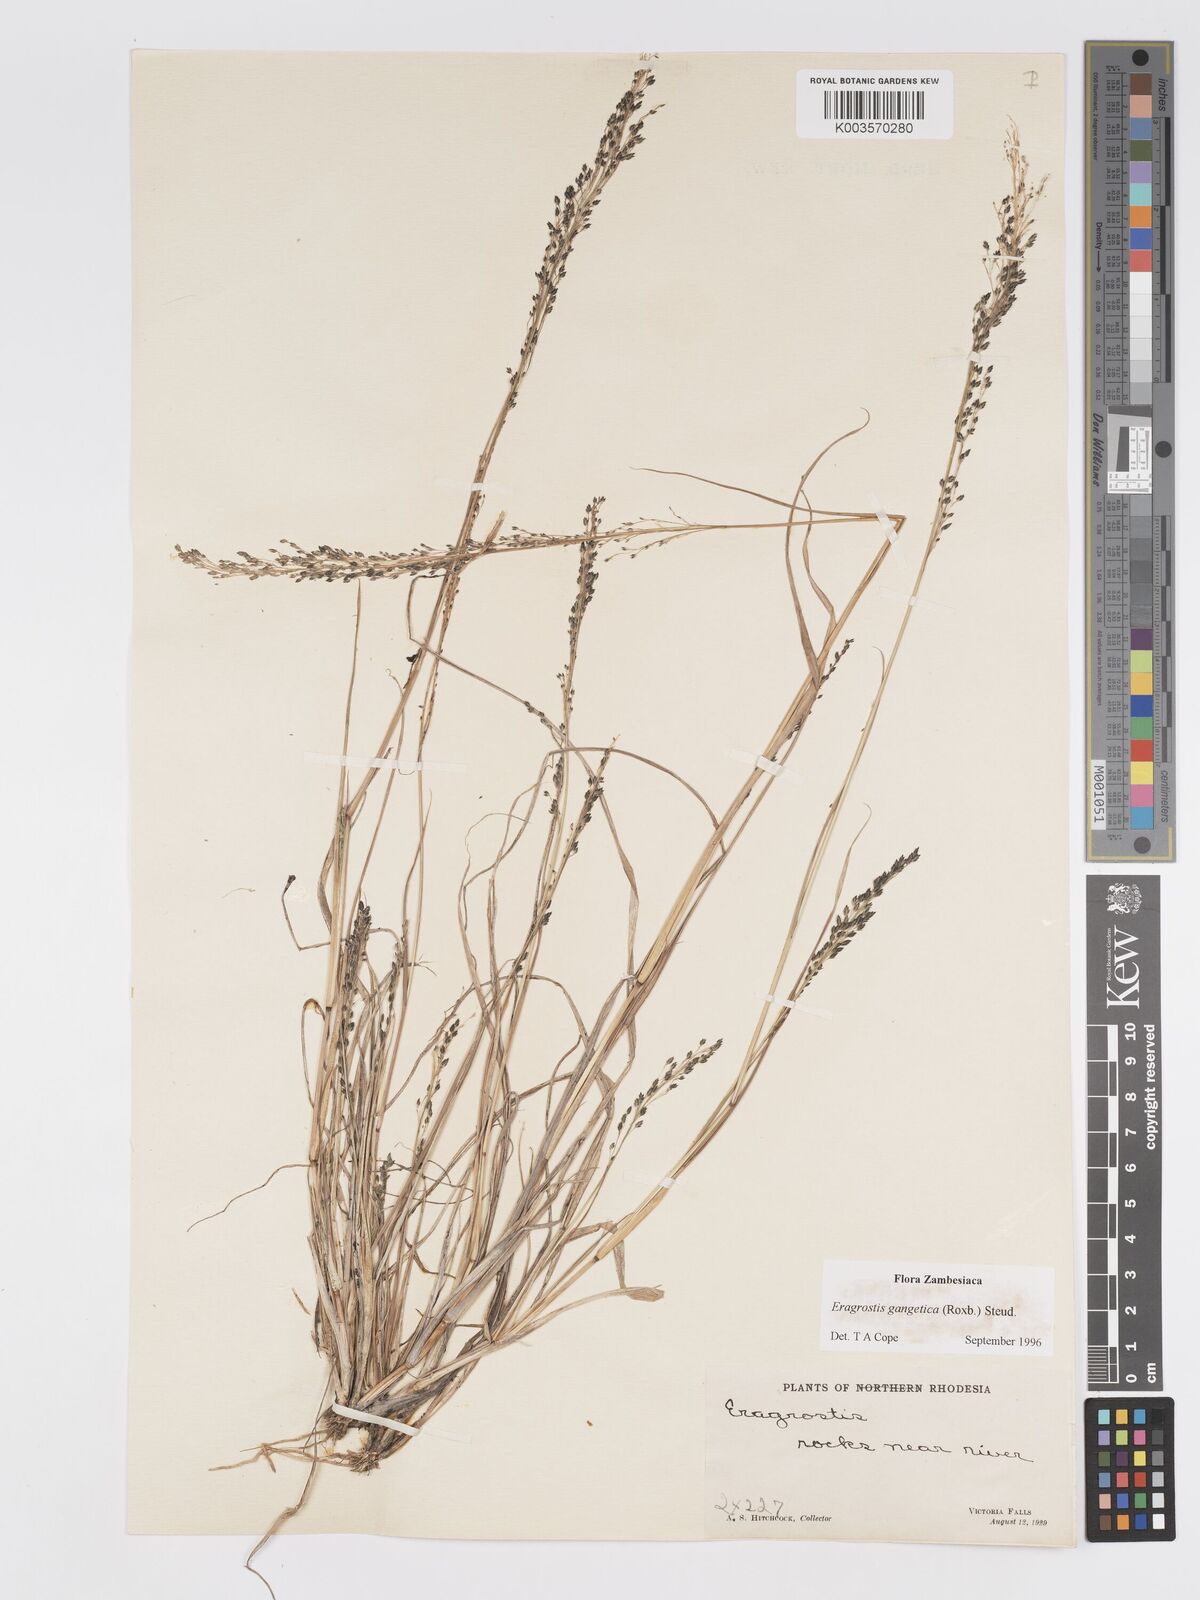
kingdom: Plantae
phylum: Tracheophyta
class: Liliopsida
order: Poales
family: Poaceae
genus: Eragrostis
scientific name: Eragrostis gangetica
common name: Slimflower lovegrass
